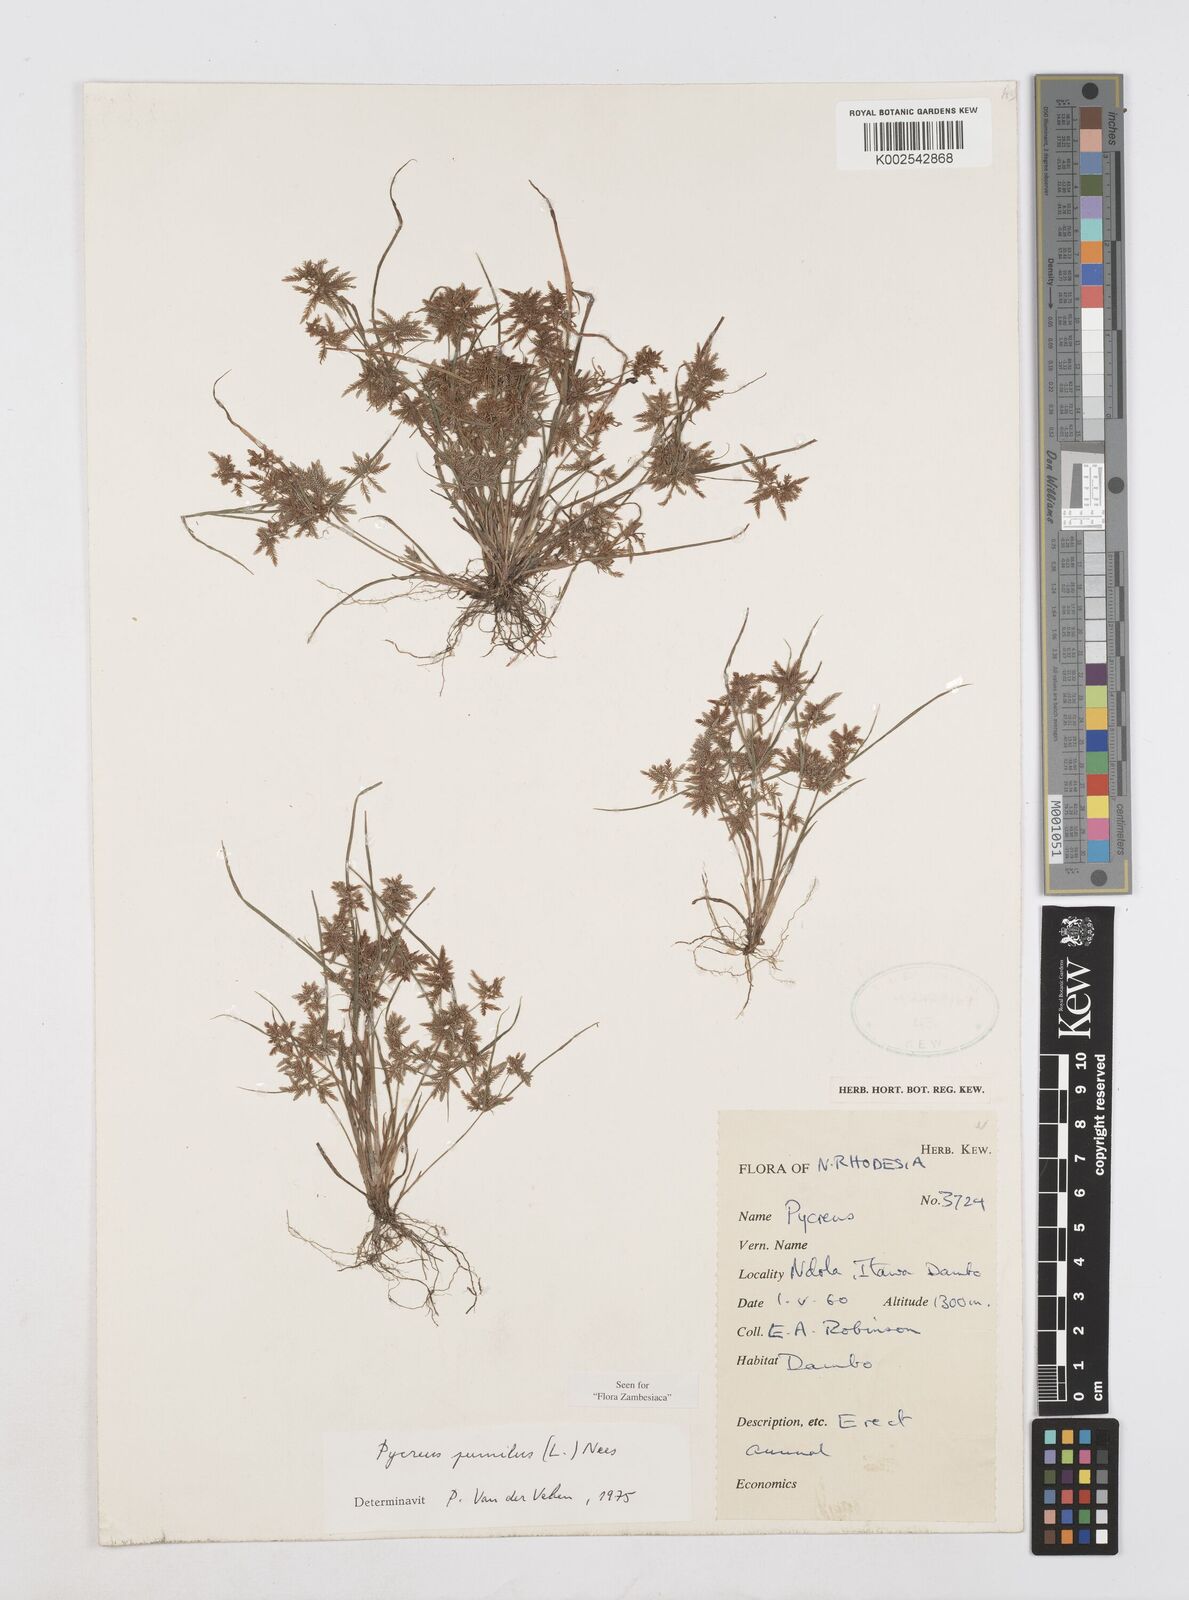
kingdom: Plantae
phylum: Tracheophyta
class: Liliopsida
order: Poales
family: Cyperaceae
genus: Cyperus
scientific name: Cyperus pumilus
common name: Low flatsedge
